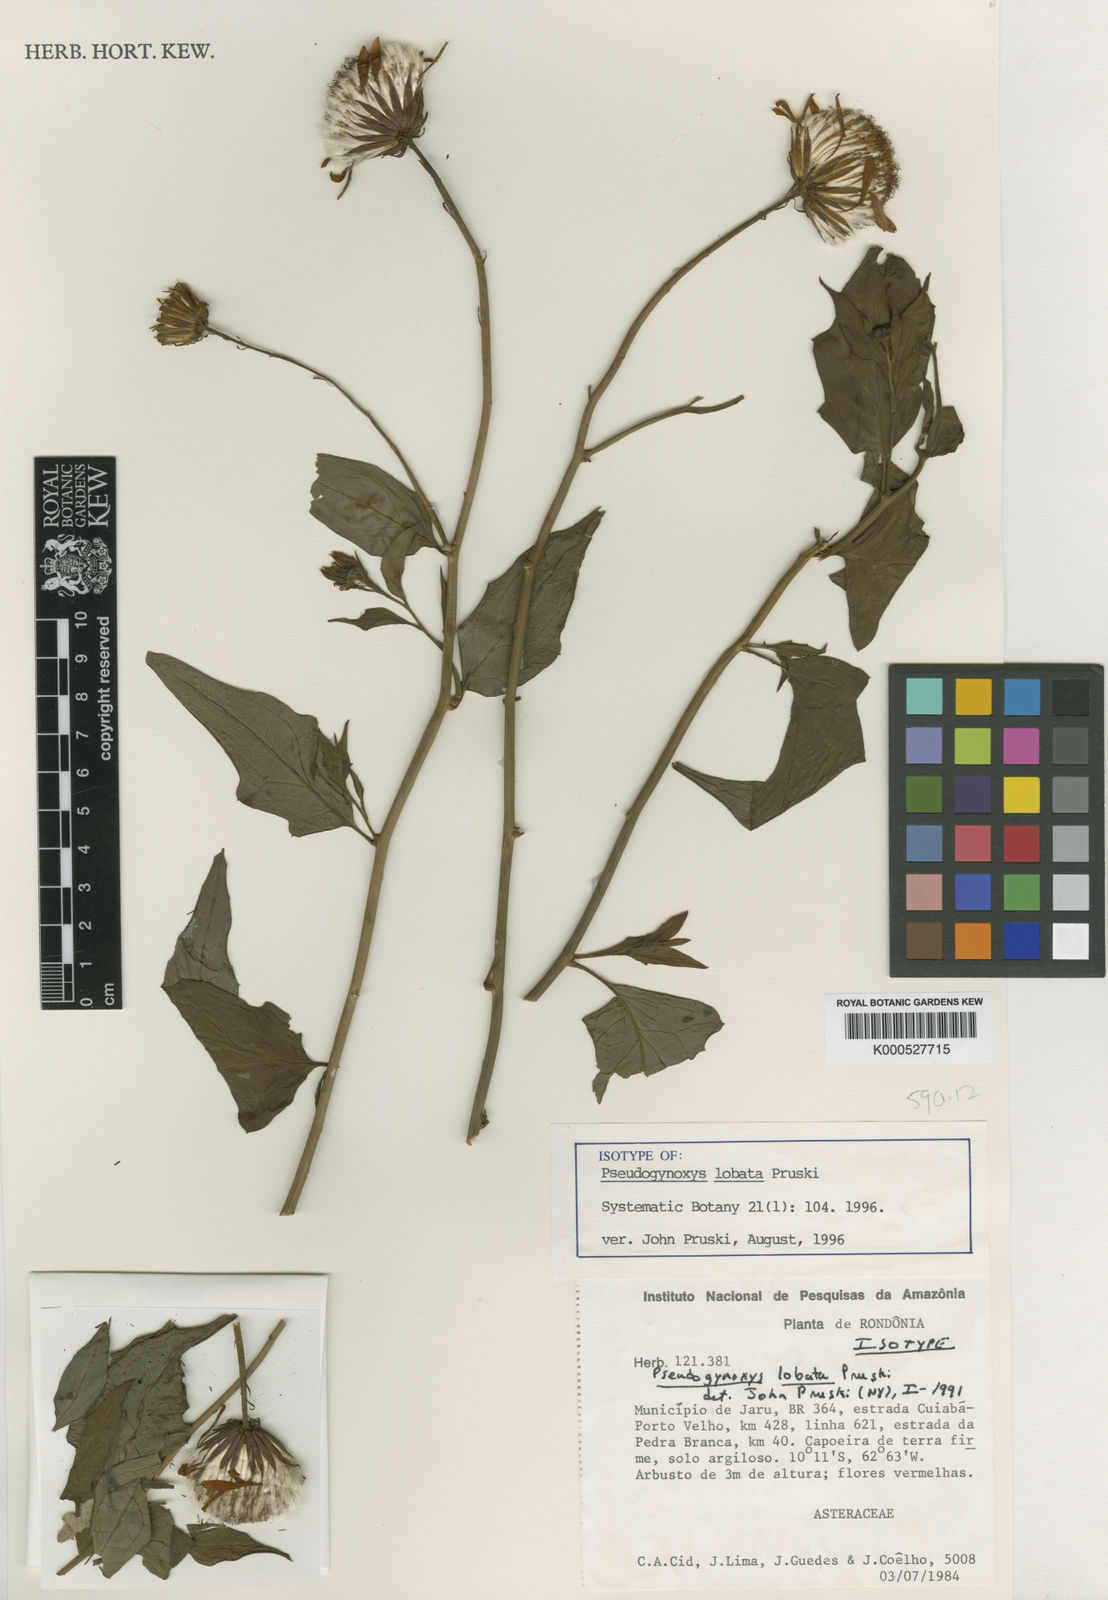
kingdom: Plantae
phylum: Tracheophyta
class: Magnoliopsida
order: Asterales
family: Asteraceae
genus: Pseudogynoxys
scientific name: Pseudogynoxys lobata
